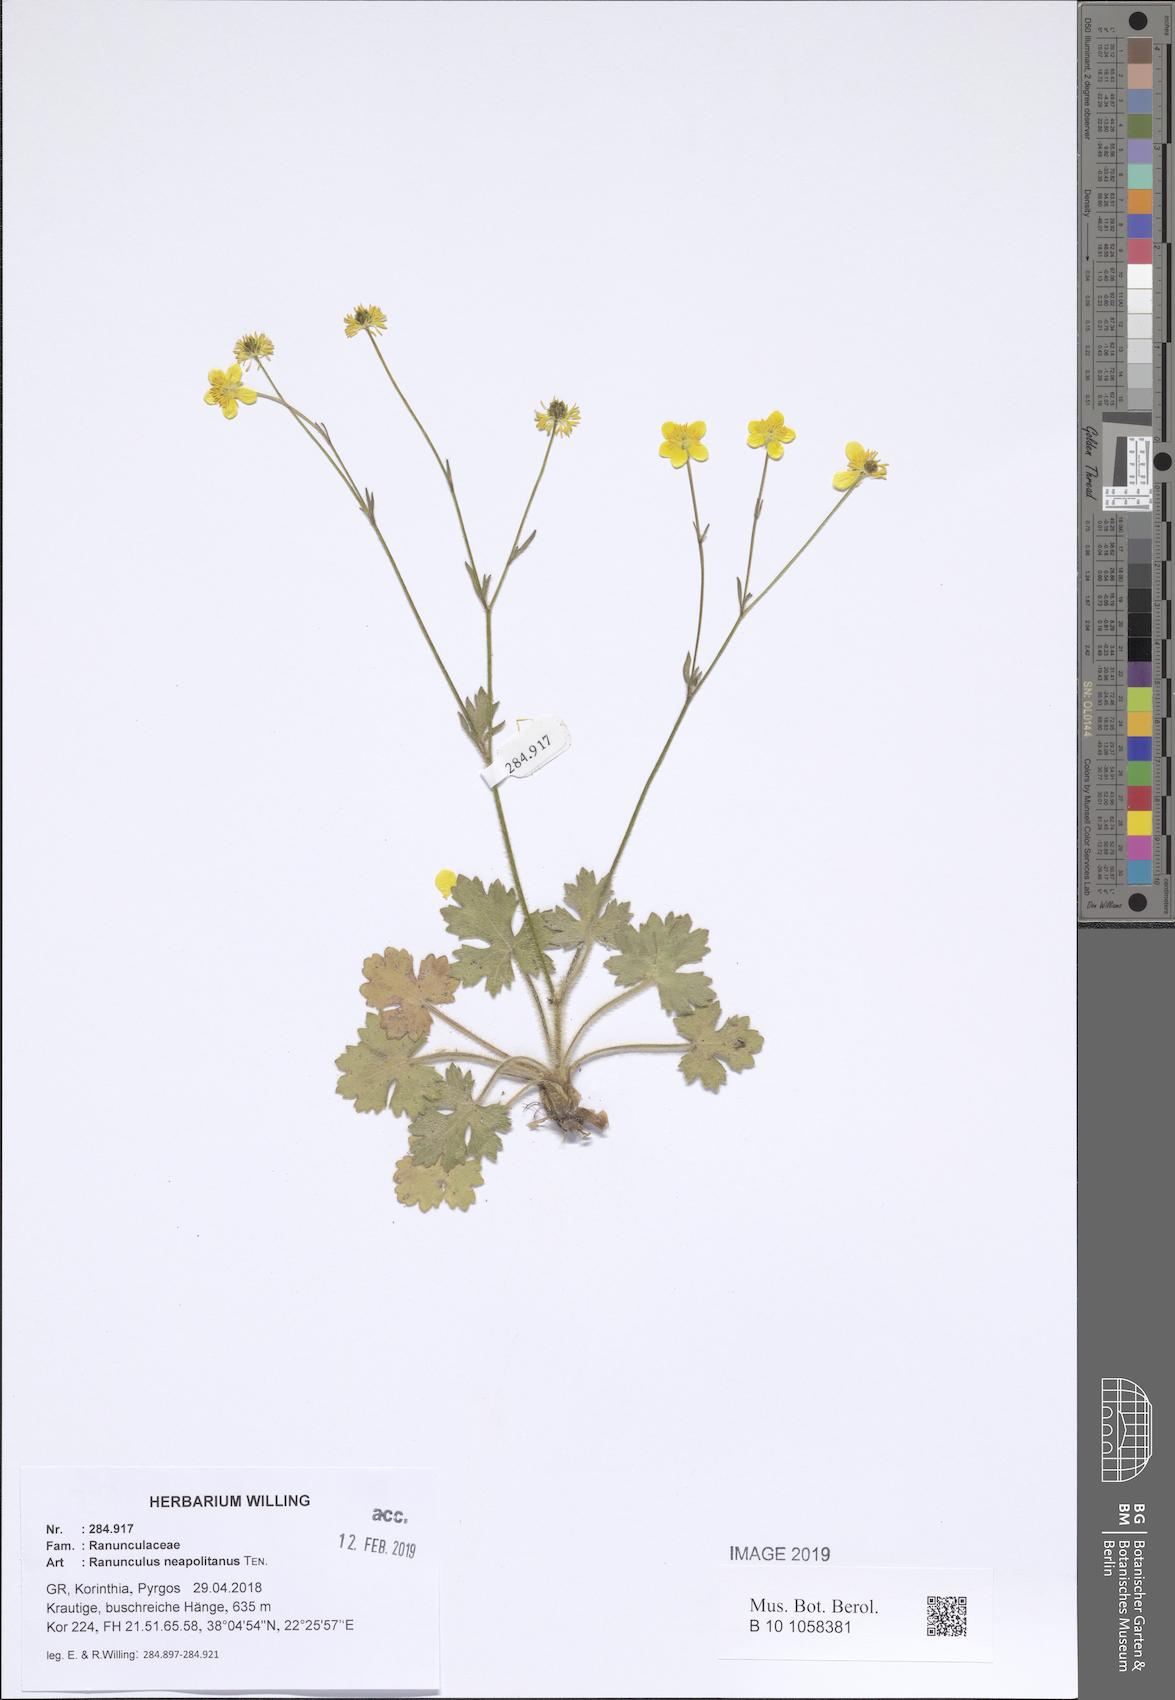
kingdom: Plantae
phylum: Tracheophyta
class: Magnoliopsida
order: Ranunculales
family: Ranunculaceae
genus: Ranunculus
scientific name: Ranunculus neapolitanus
